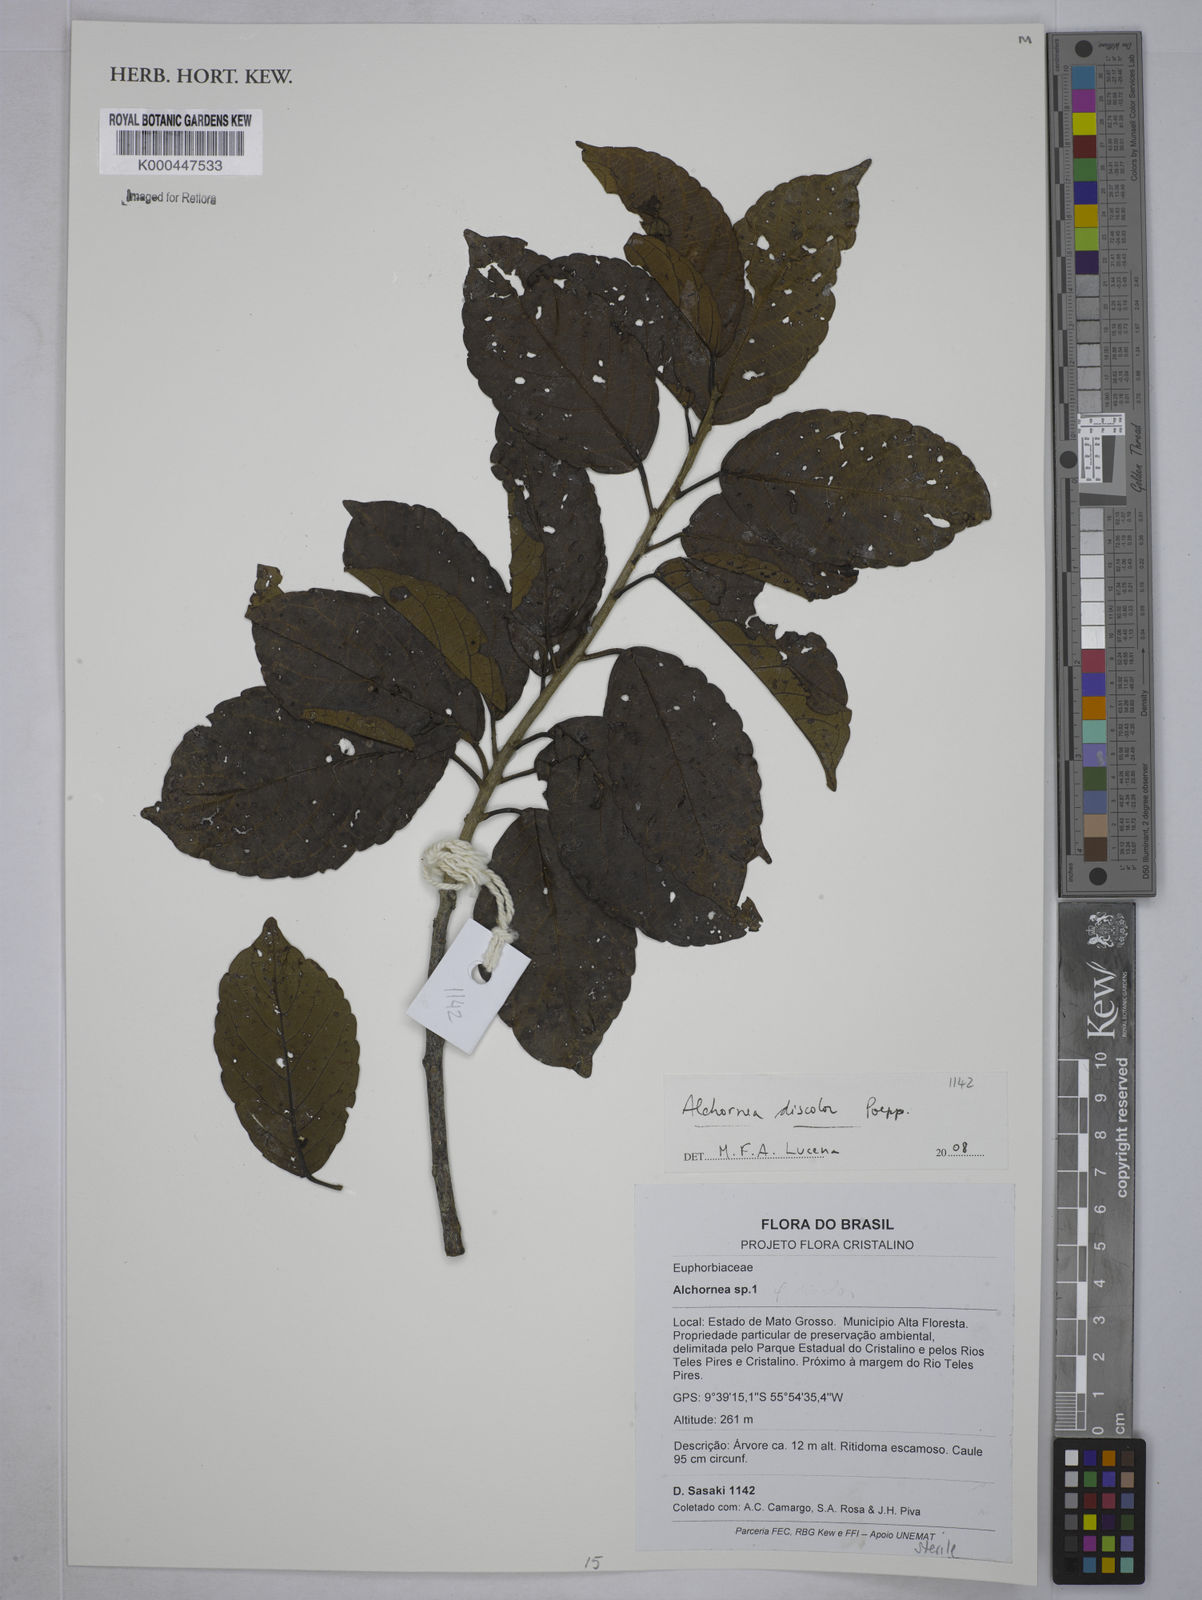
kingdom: Plantae
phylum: Tracheophyta
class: Magnoliopsida
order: Malpighiales
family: Euphorbiaceae
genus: Alchornea
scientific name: Alchornea discolor
